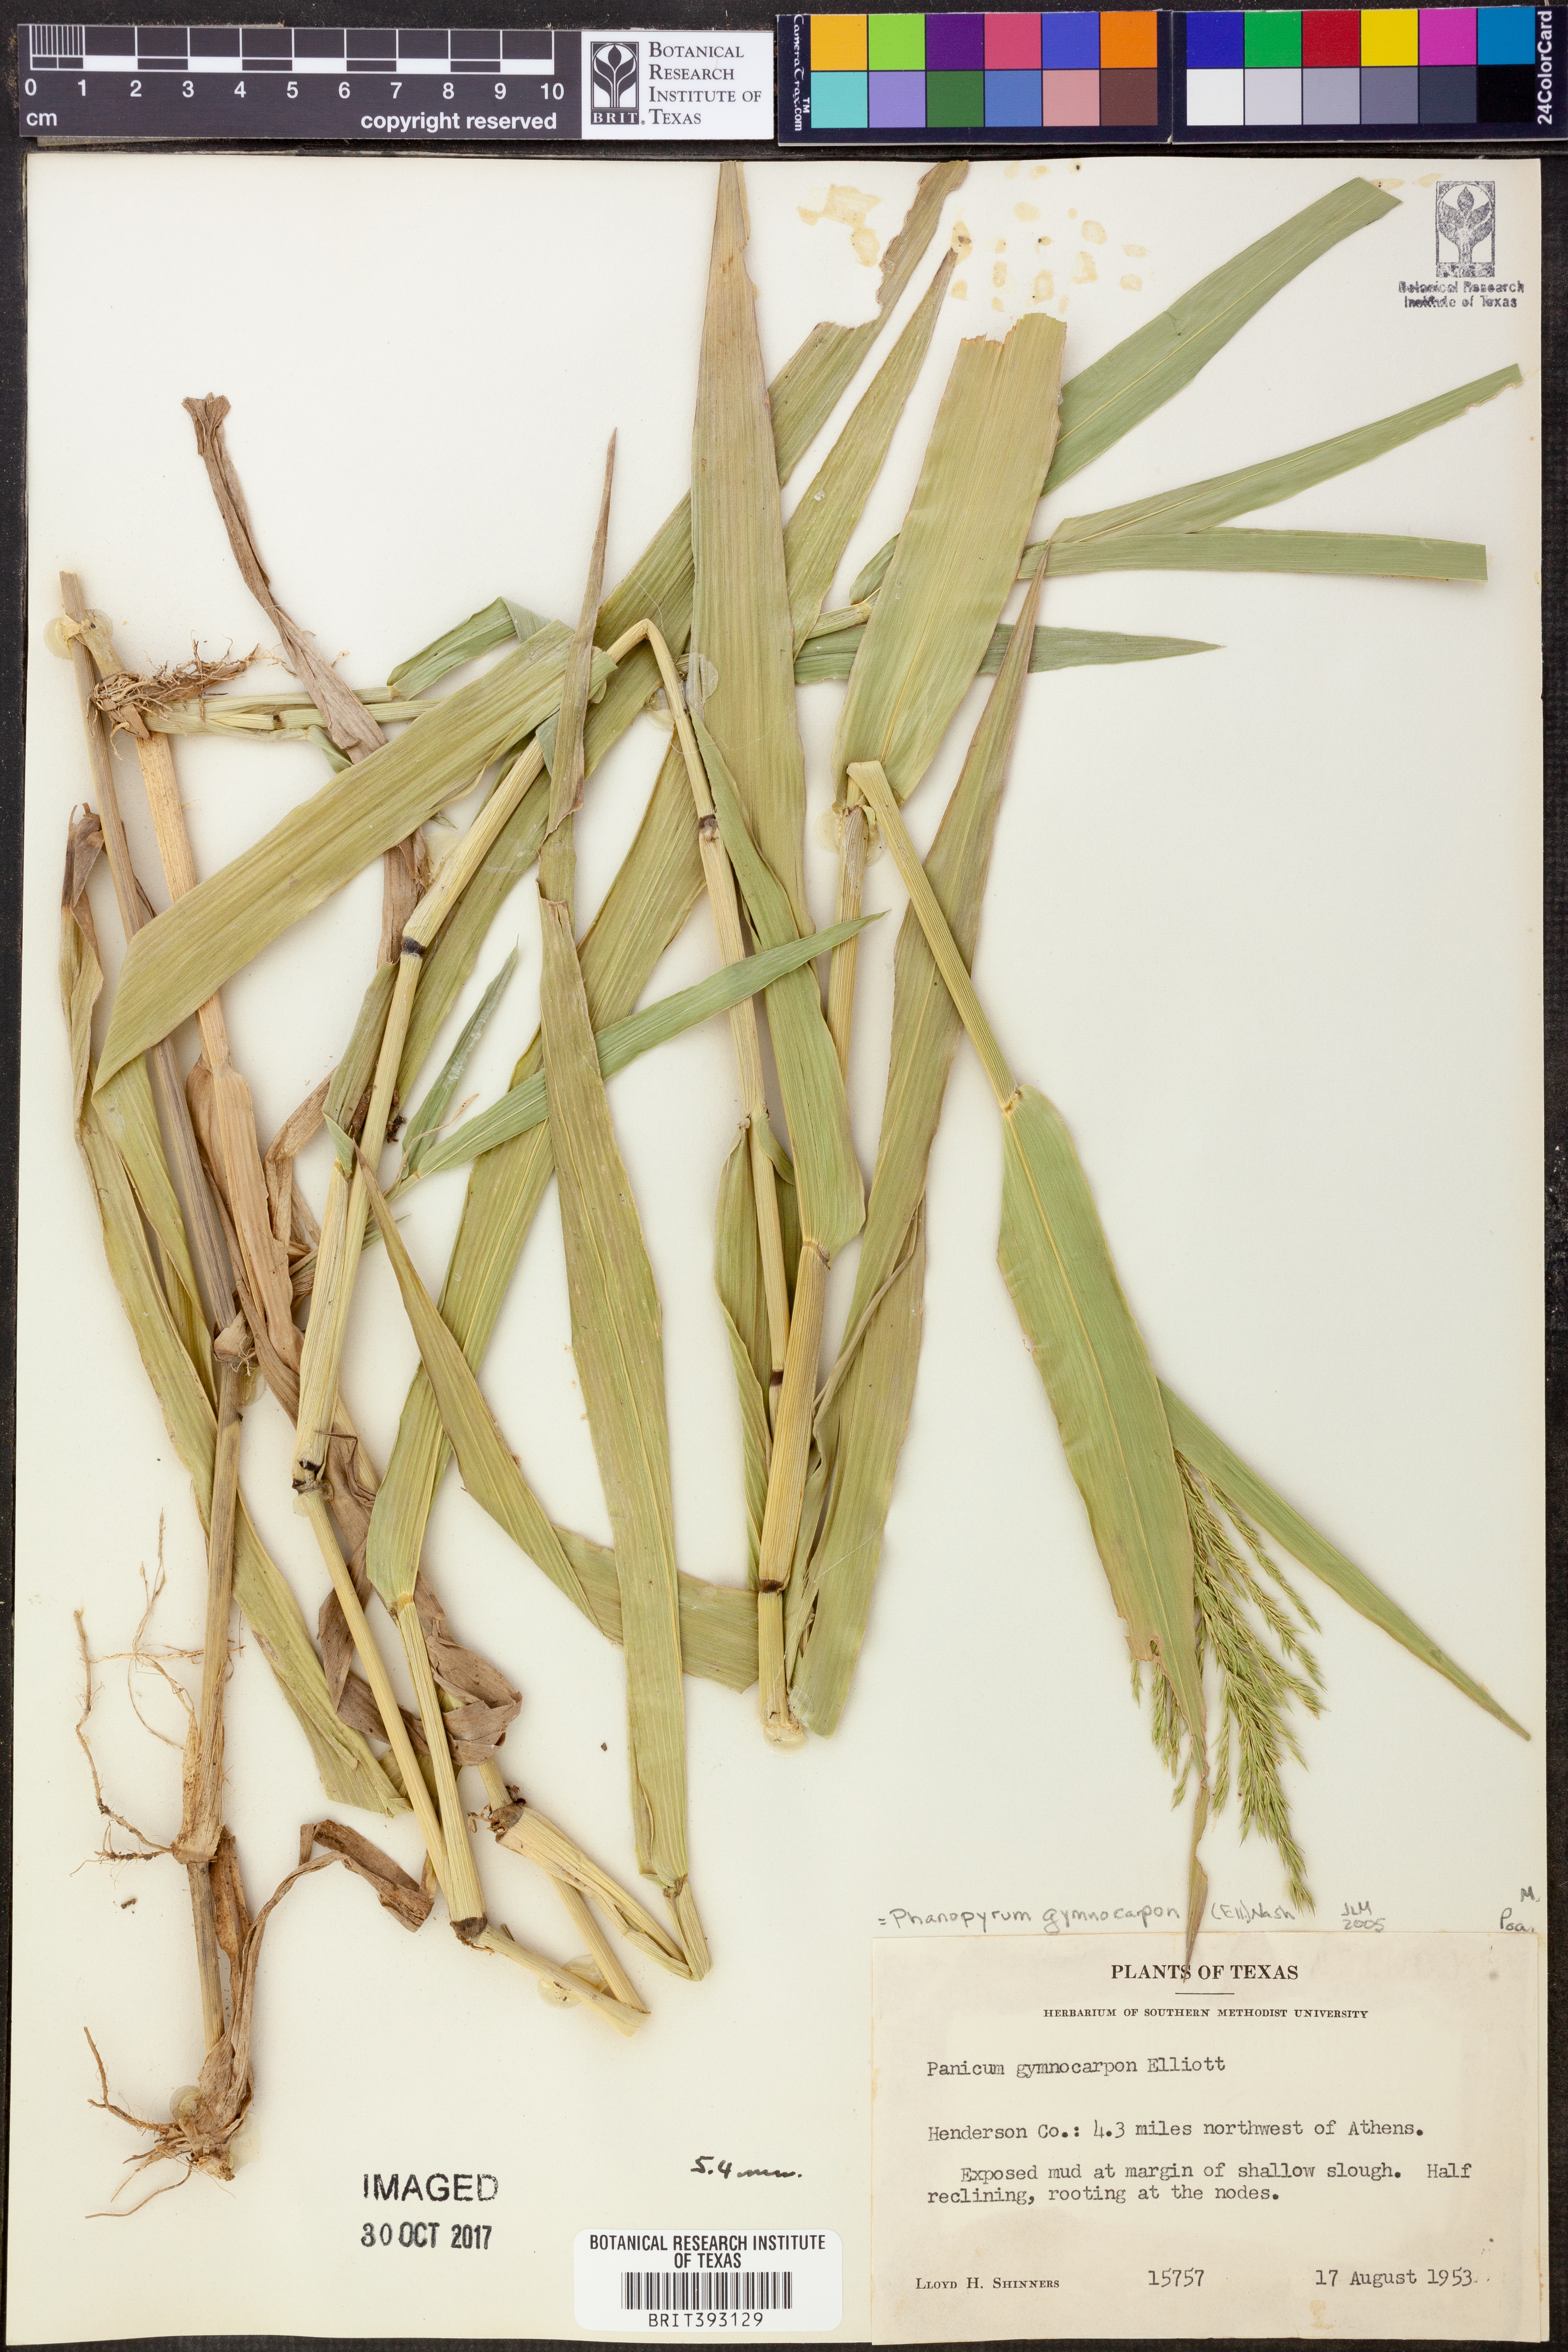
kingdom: Plantae
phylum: Tracheophyta
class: Liliopsida
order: Poales
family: Poaceae
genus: Panicum
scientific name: Panicum gymnocarpon
